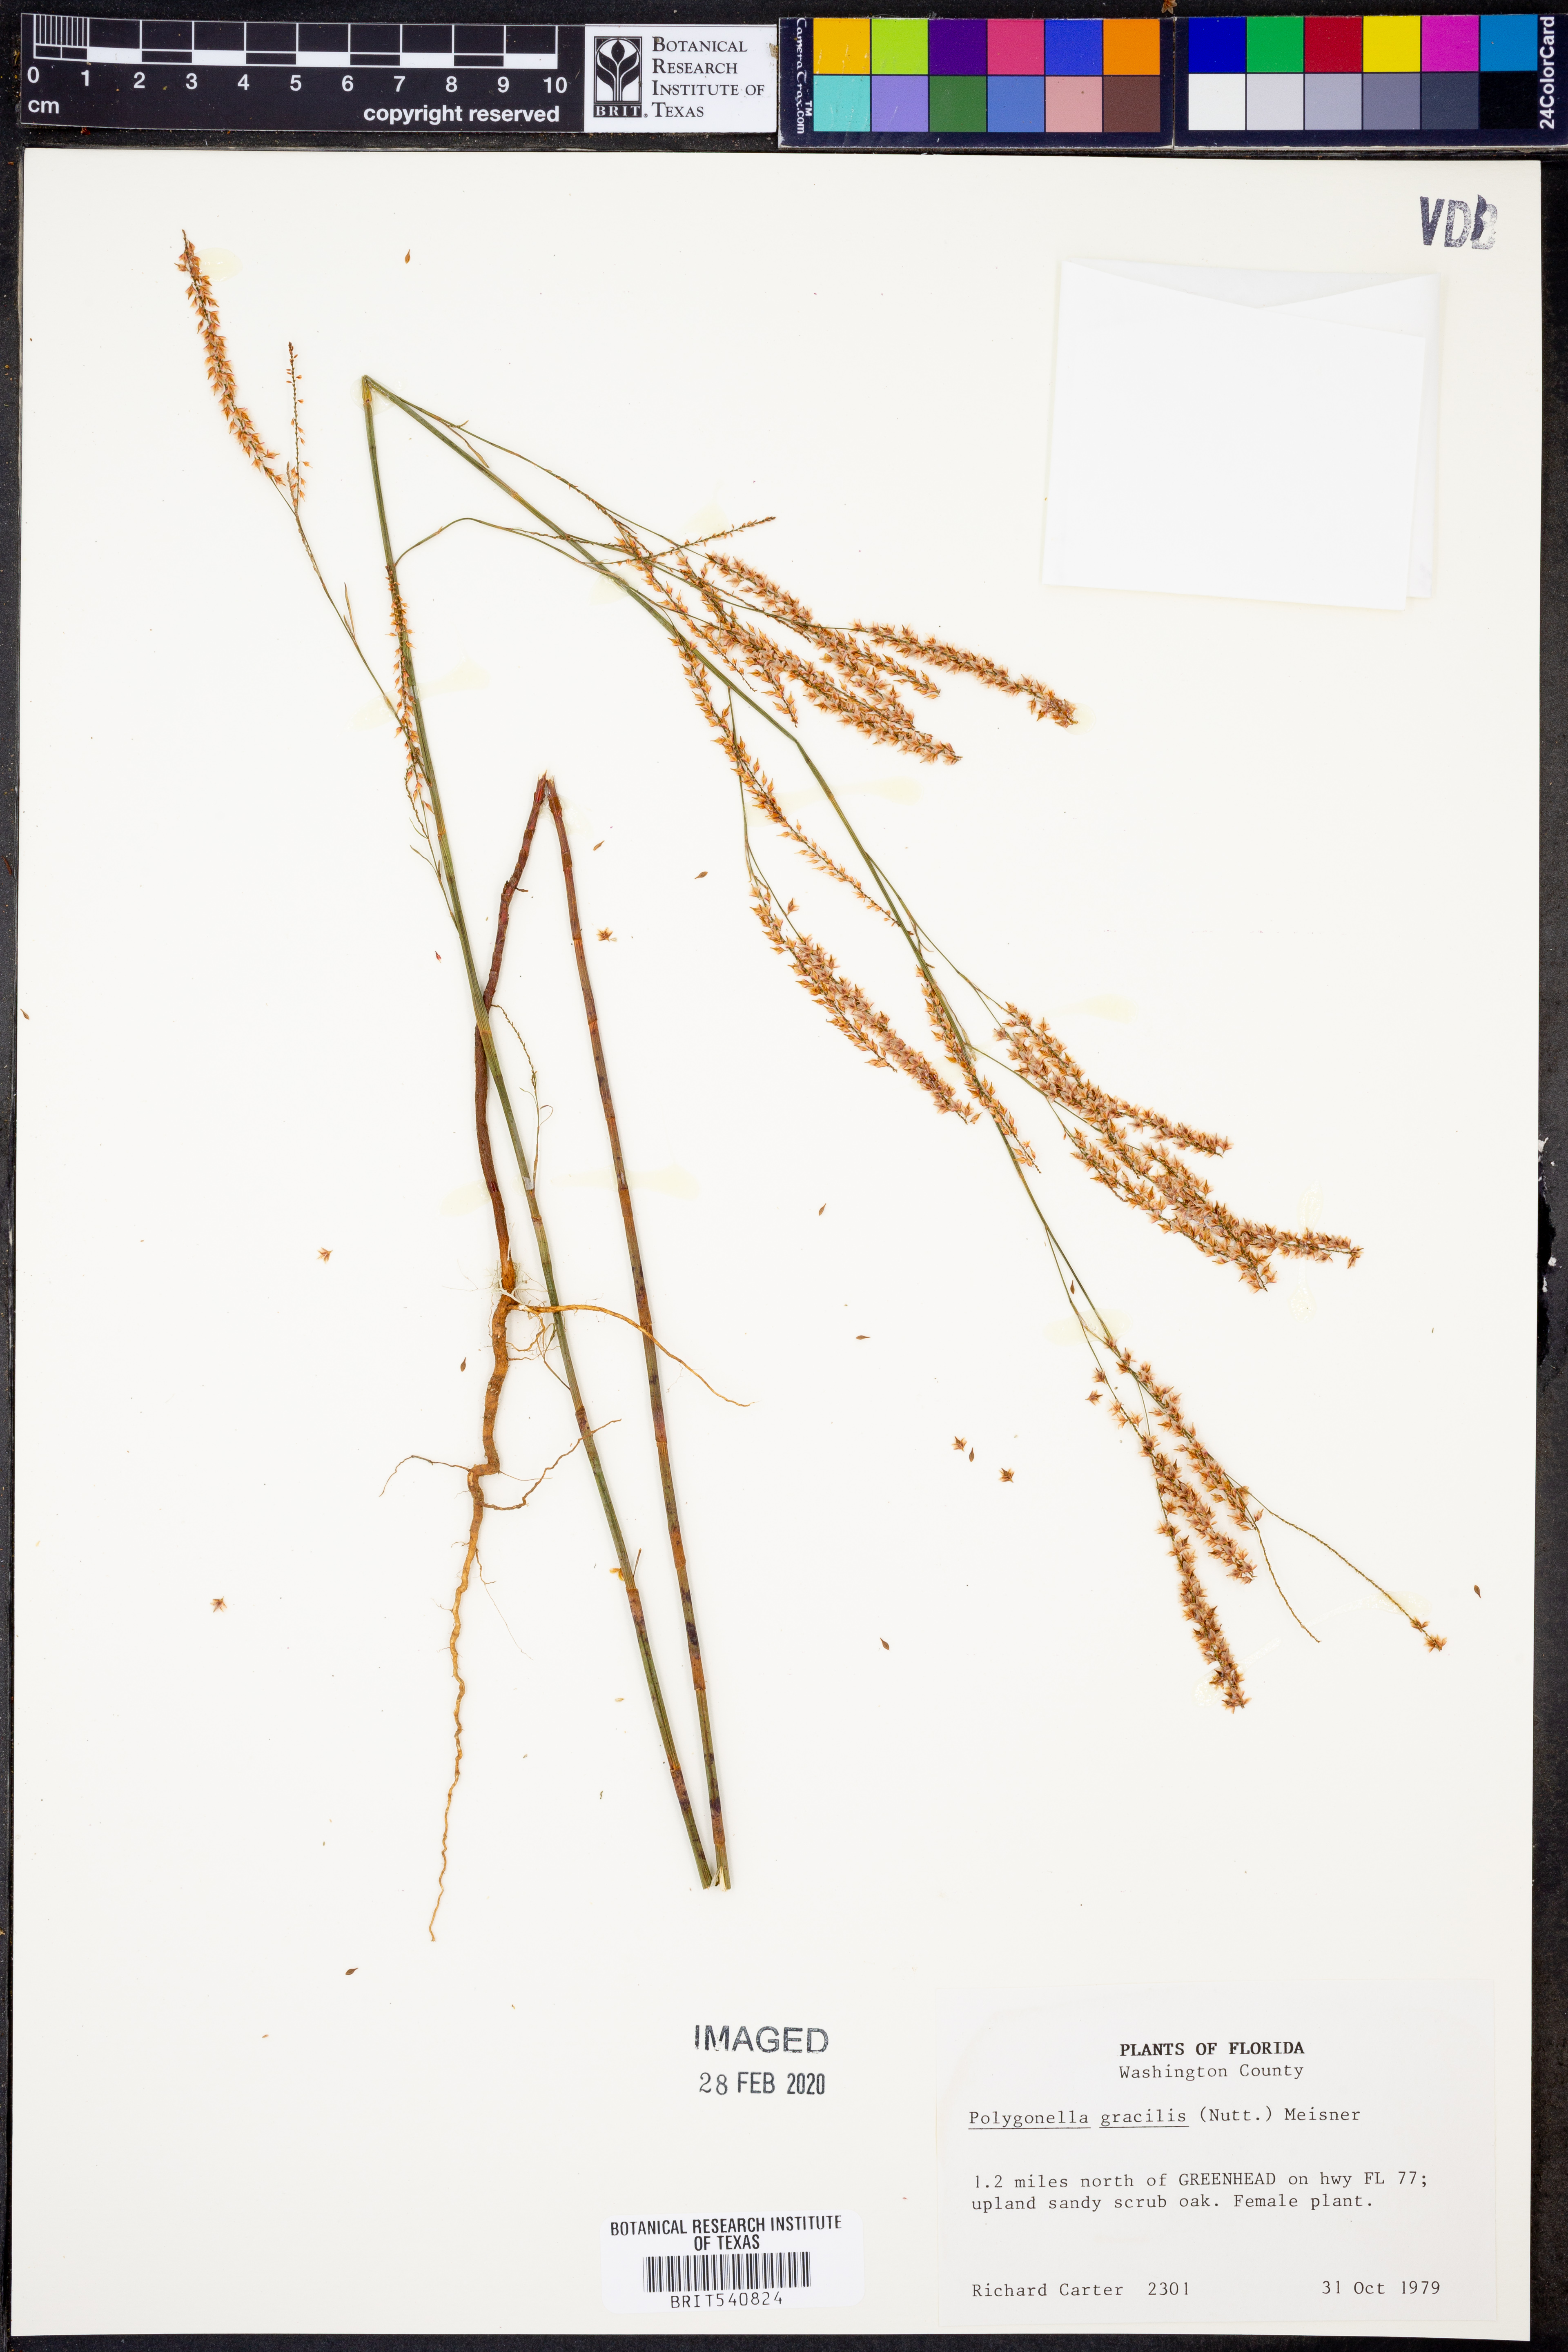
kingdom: Plantae
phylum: Tracheophyta
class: Magnoliopsida
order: Caryophyllales
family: Polygonaceae
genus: Polygonella
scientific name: Polygonella gracilis
